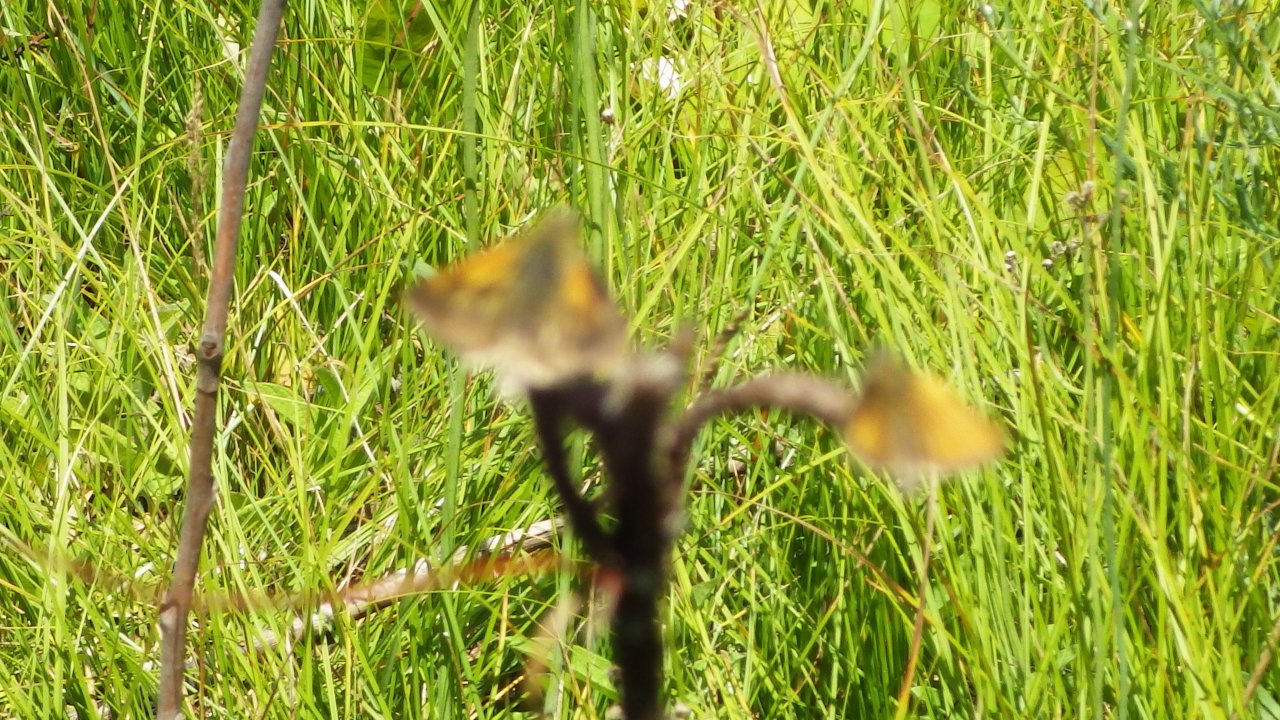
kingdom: Animalia
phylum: Arthropoda
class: Insecta
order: Lepidoptera
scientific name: Lepidoptera
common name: Butterflies
